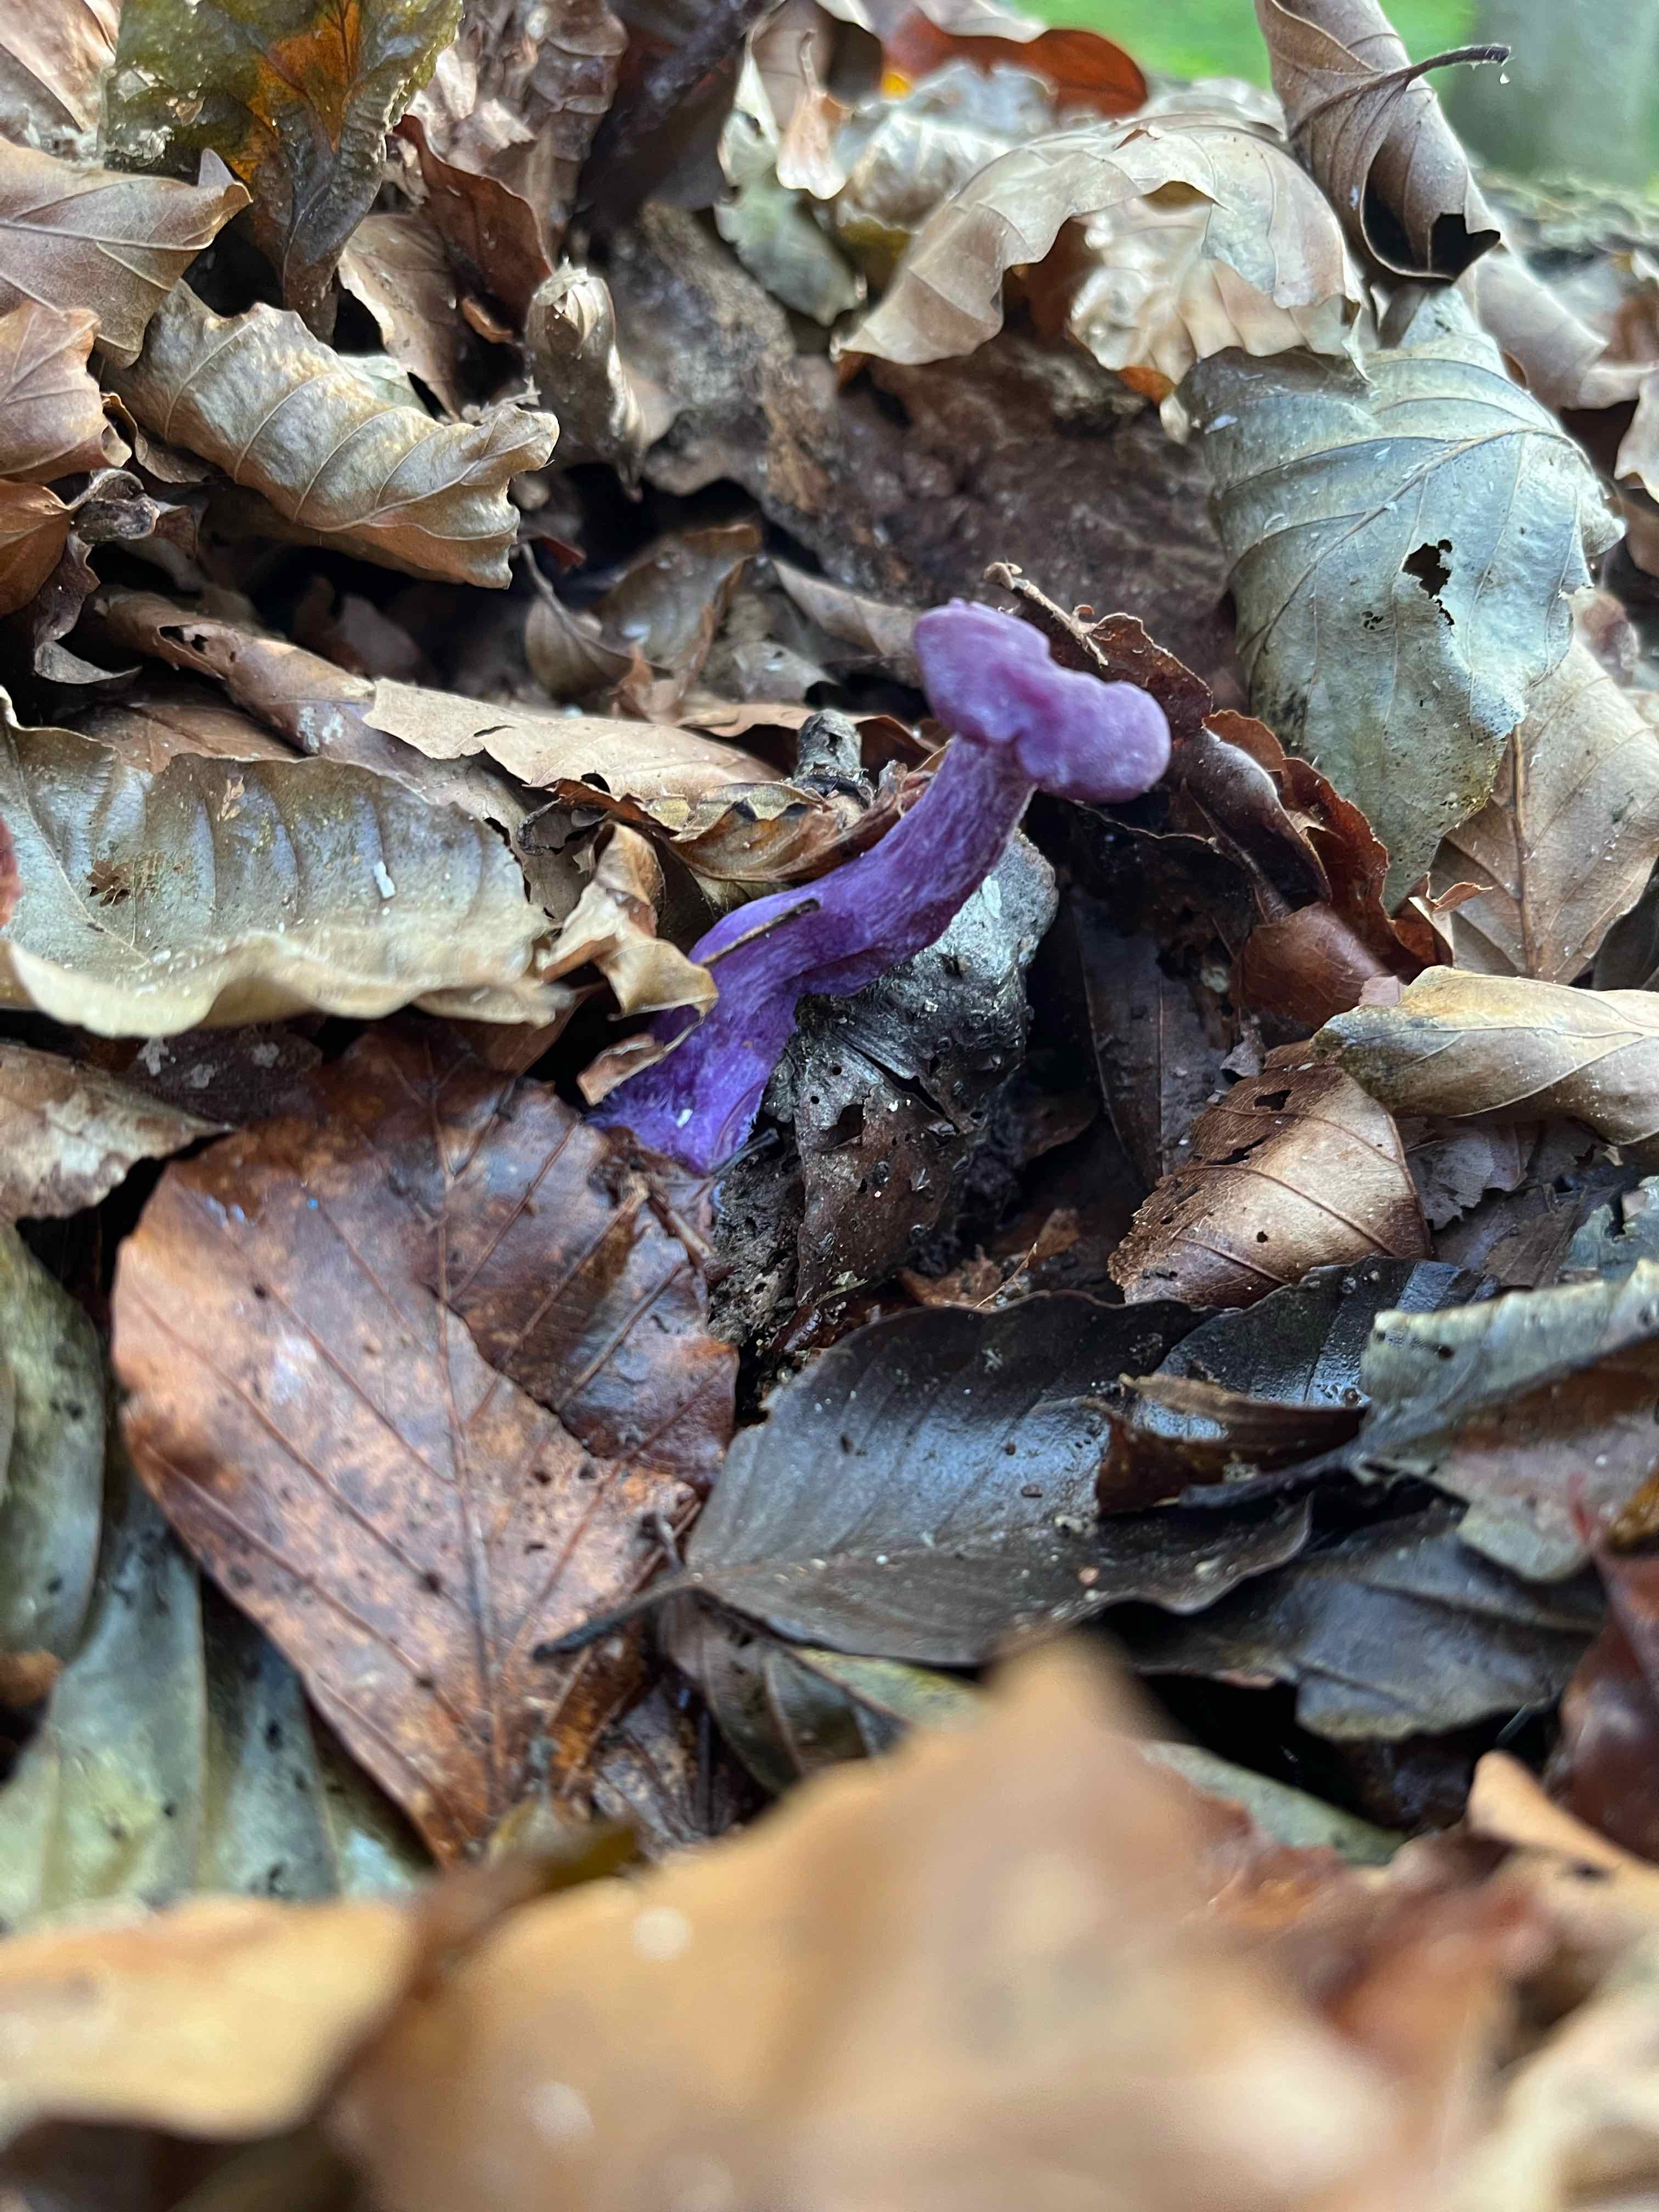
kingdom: Fungi
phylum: Basidiomycota
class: Agaricomycetes
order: Agaricales
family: Hydnangiaceae
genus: Laccaria
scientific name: Laccaria amethystina
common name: violet ametysthat
